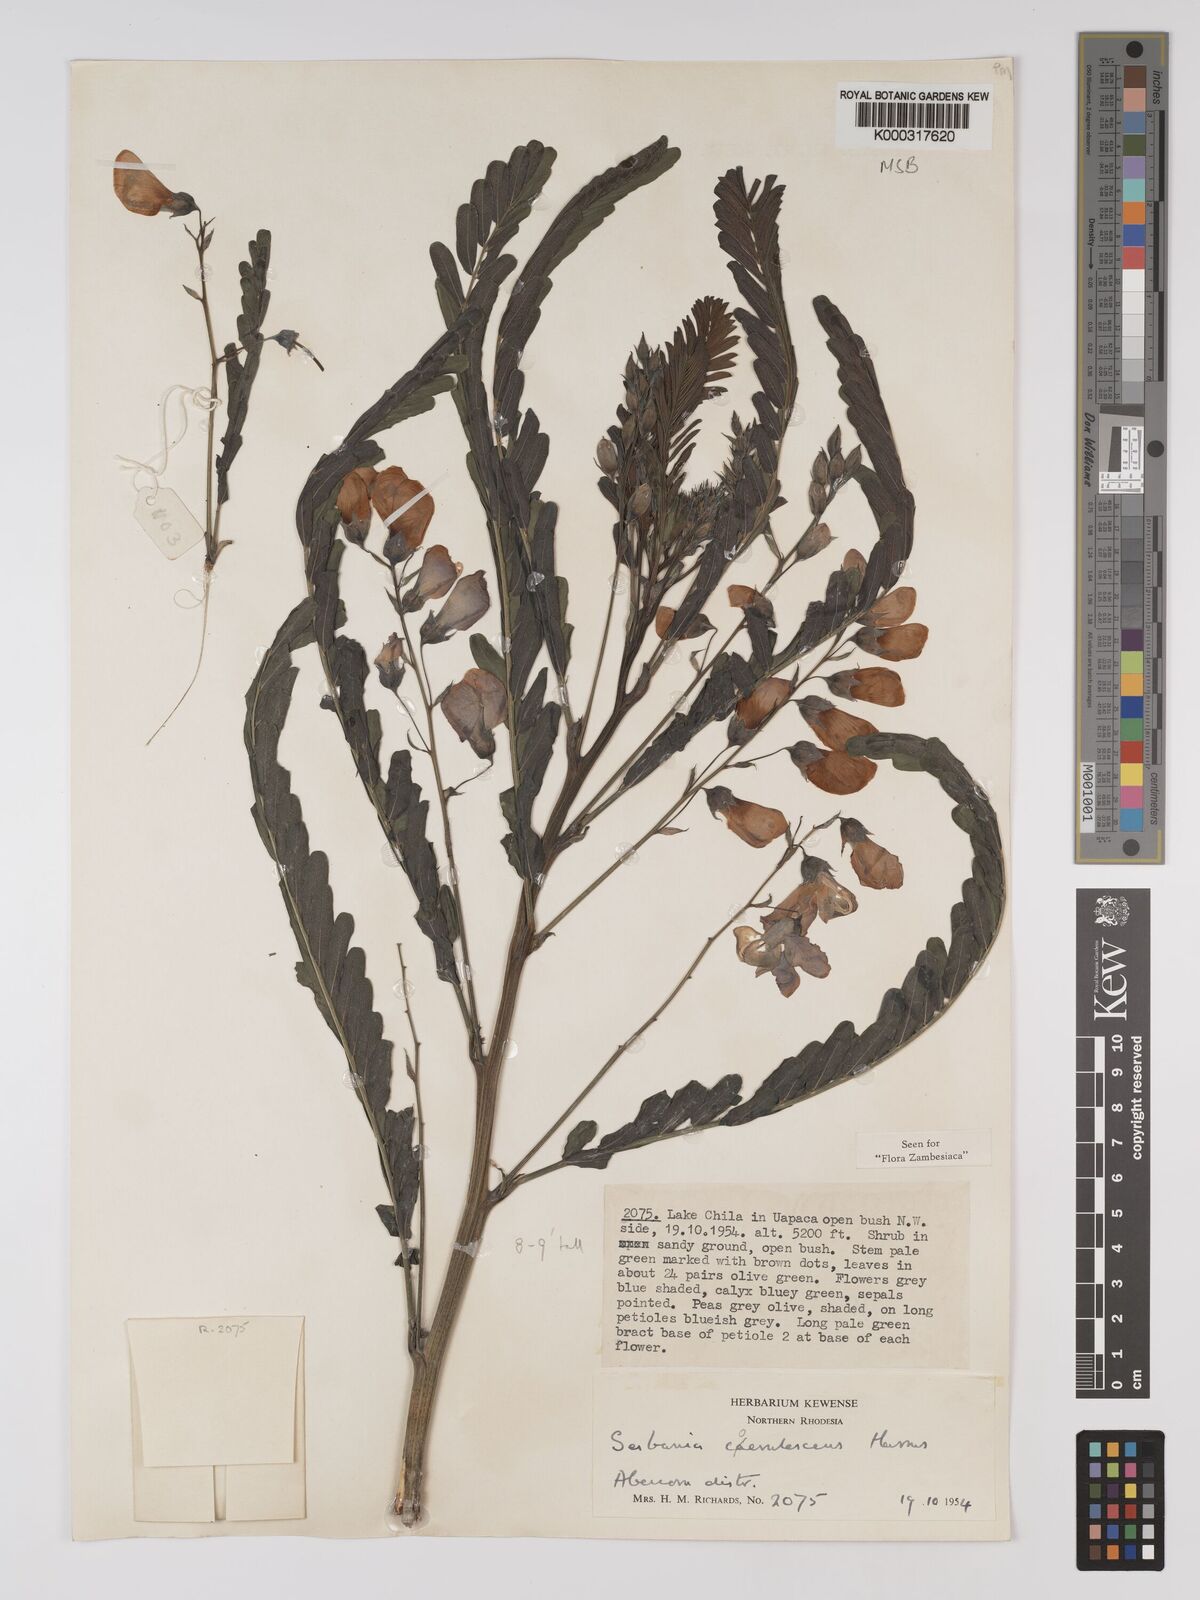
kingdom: Plantae
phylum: Tracheophyta
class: Magnoliopsida
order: Fabales
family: Fabaceae
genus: Sesbania
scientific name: Sesbania coerulescens
